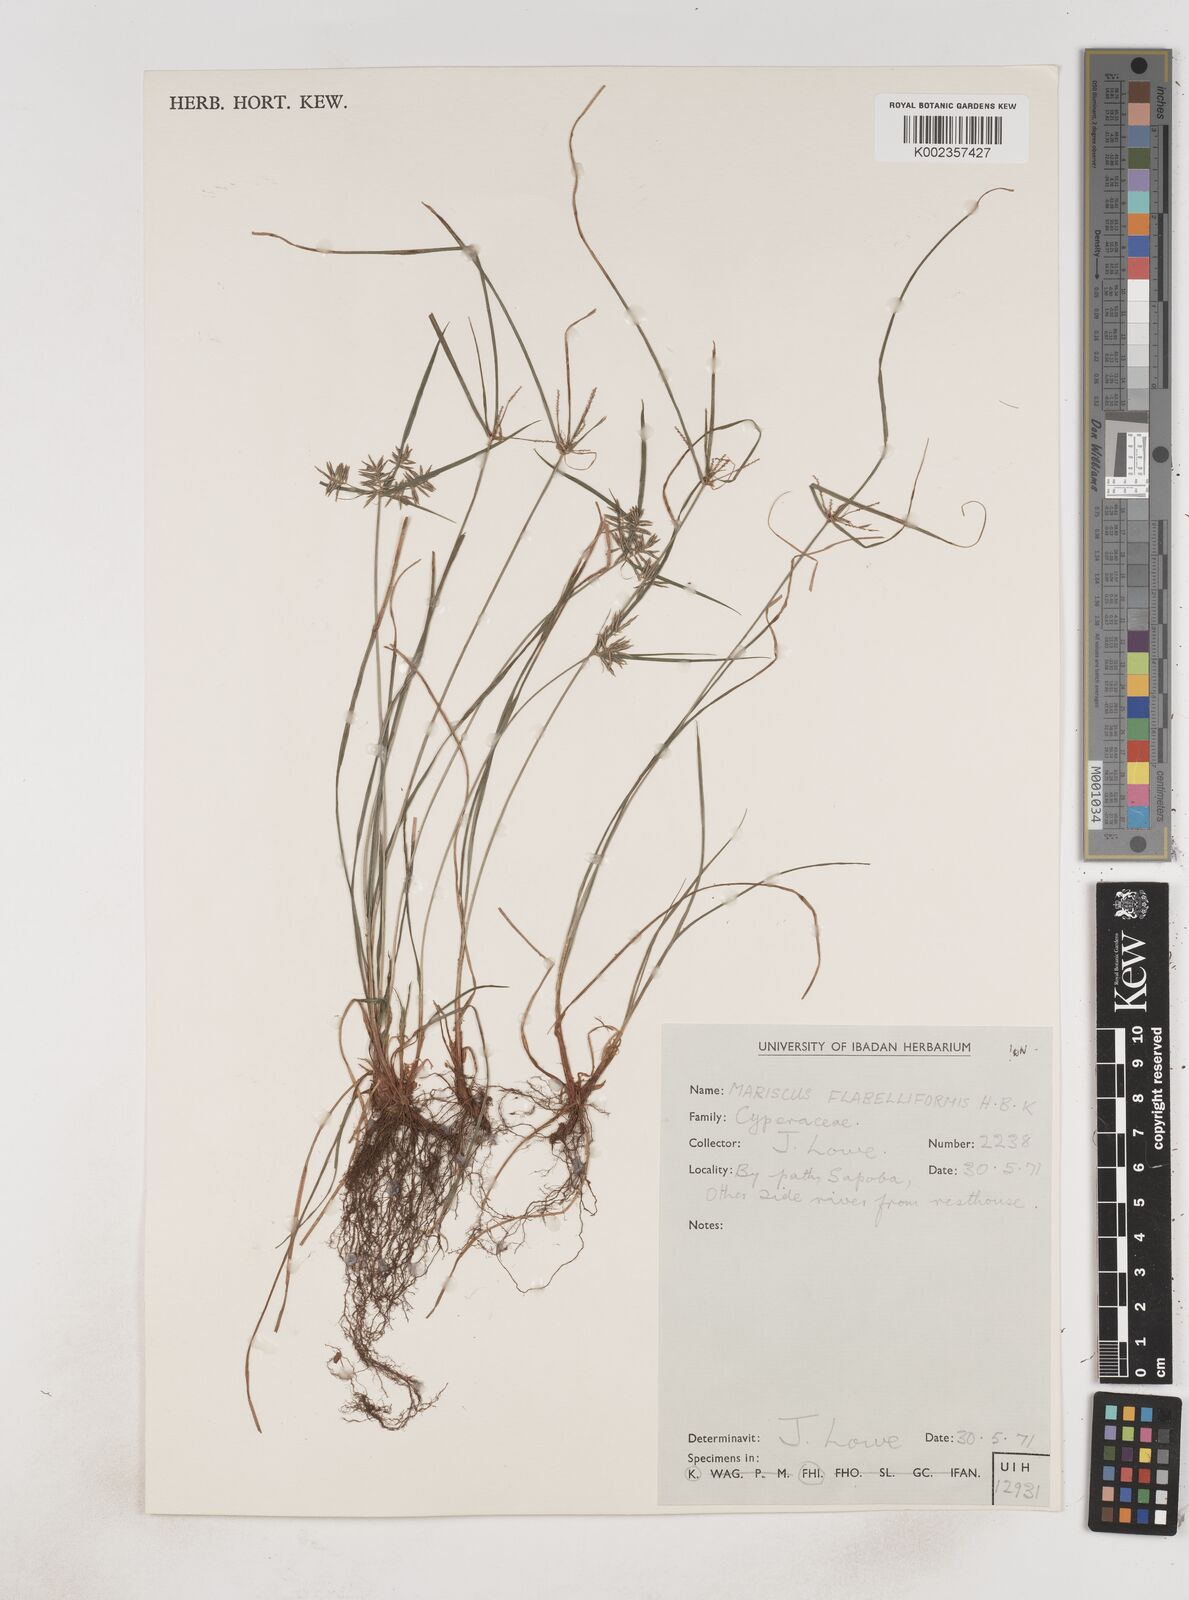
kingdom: Plantae
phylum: Tracheophyta
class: Liliopsida
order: Poales
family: Cyperaceae
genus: Cyperus
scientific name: Cyperus tenuis
